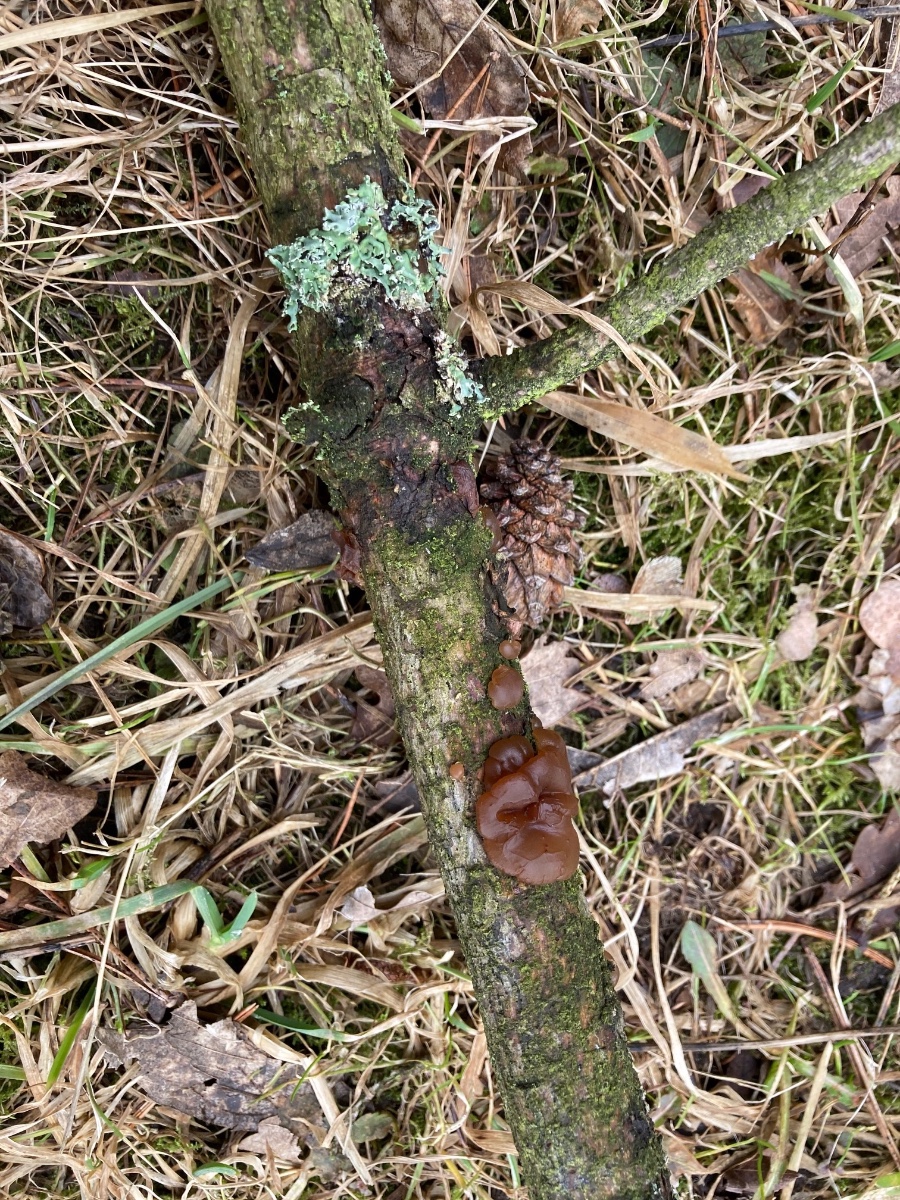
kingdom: Fungi
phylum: Basidiomycota
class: Agaricomycetes
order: Auriculariales
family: Auriculariaceae
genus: Exidia
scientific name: Exidia saccharina
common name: kandis-bævretop
